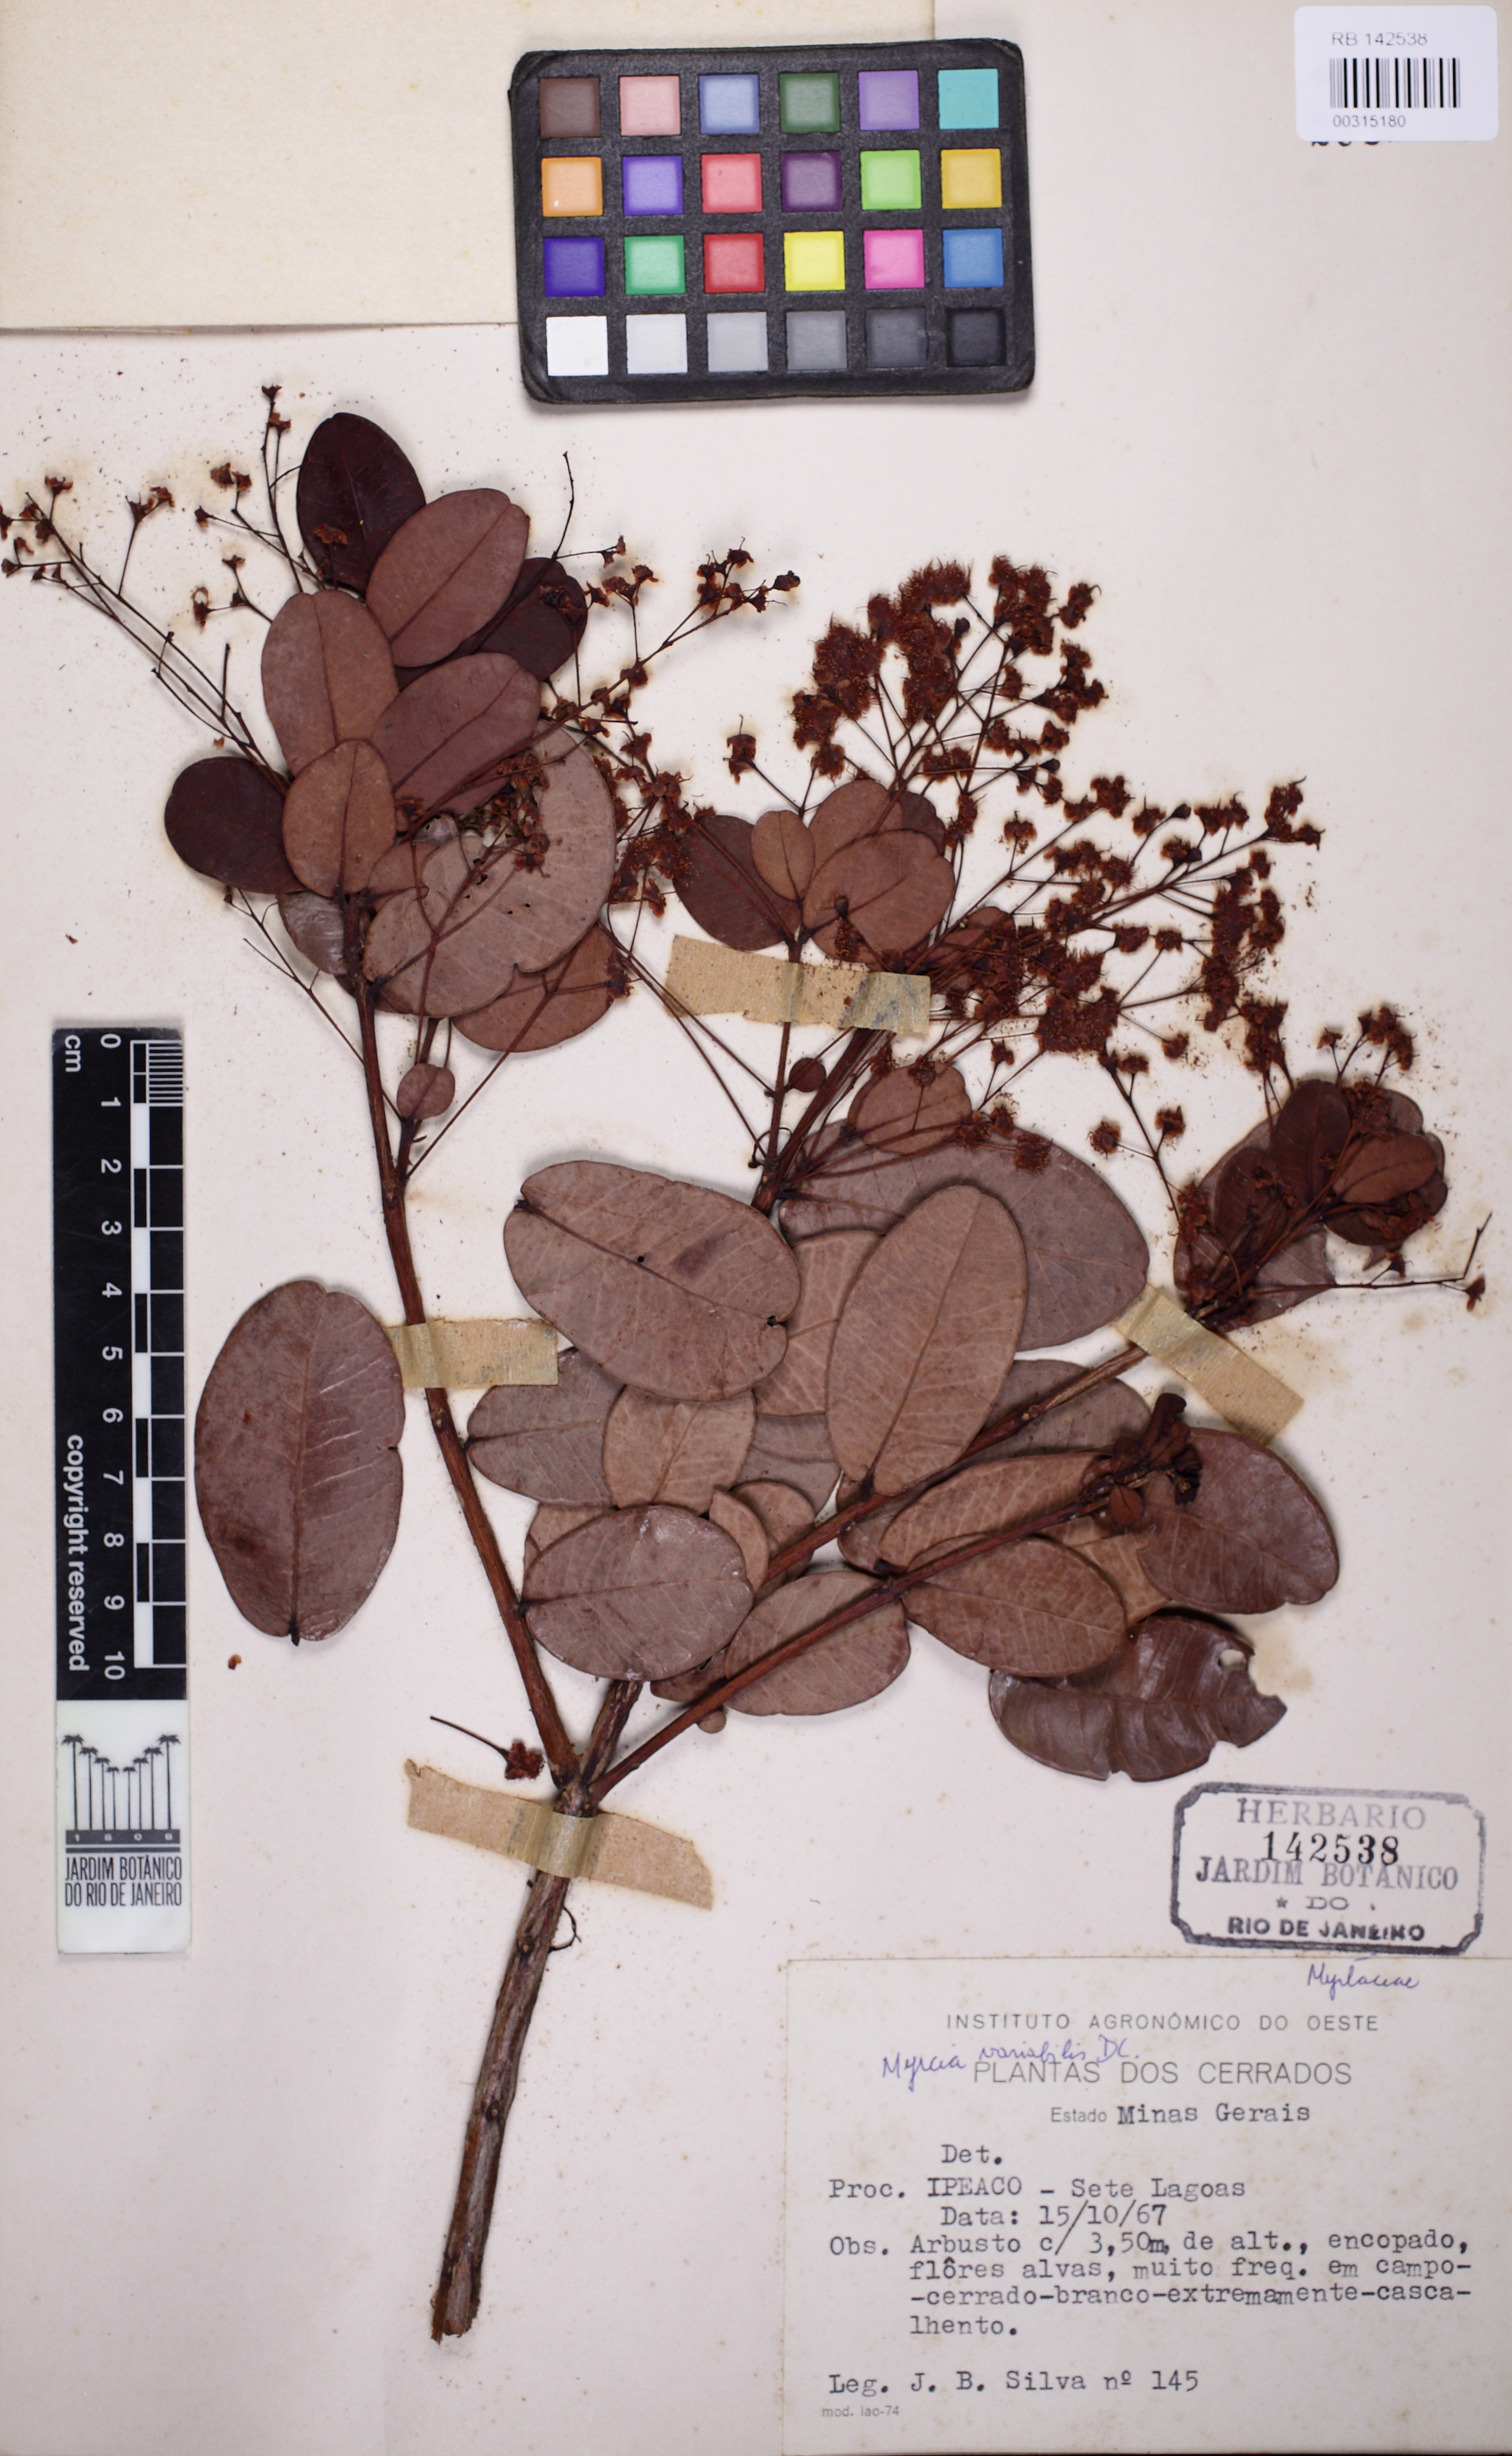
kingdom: Plantae
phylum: Tracheophyta
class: Magnoliopsida
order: Myrtales
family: Myrtaceae
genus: Myrcia
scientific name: Myrcia variabilis
